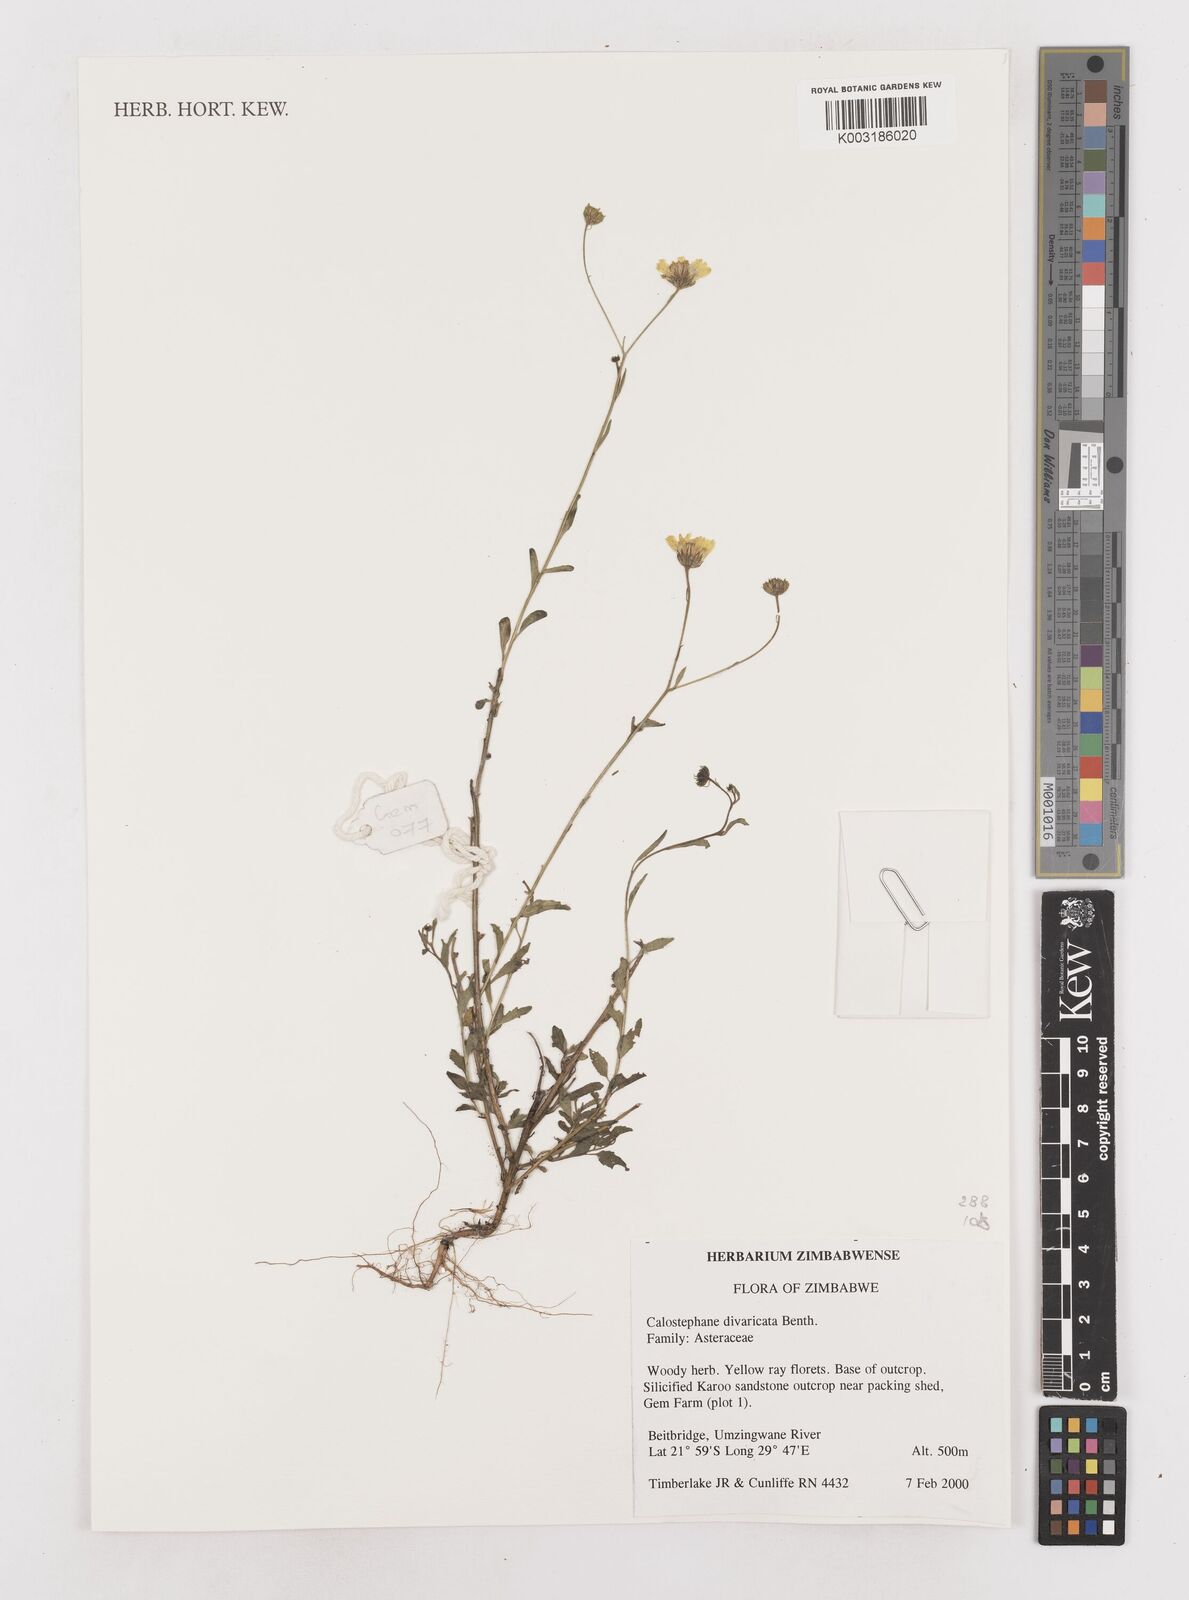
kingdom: Plantae
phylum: Tracheophyta
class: Magnoliopsida
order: Asterales
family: Asteraceae
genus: Calostephane
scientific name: Calostephane divaricata
